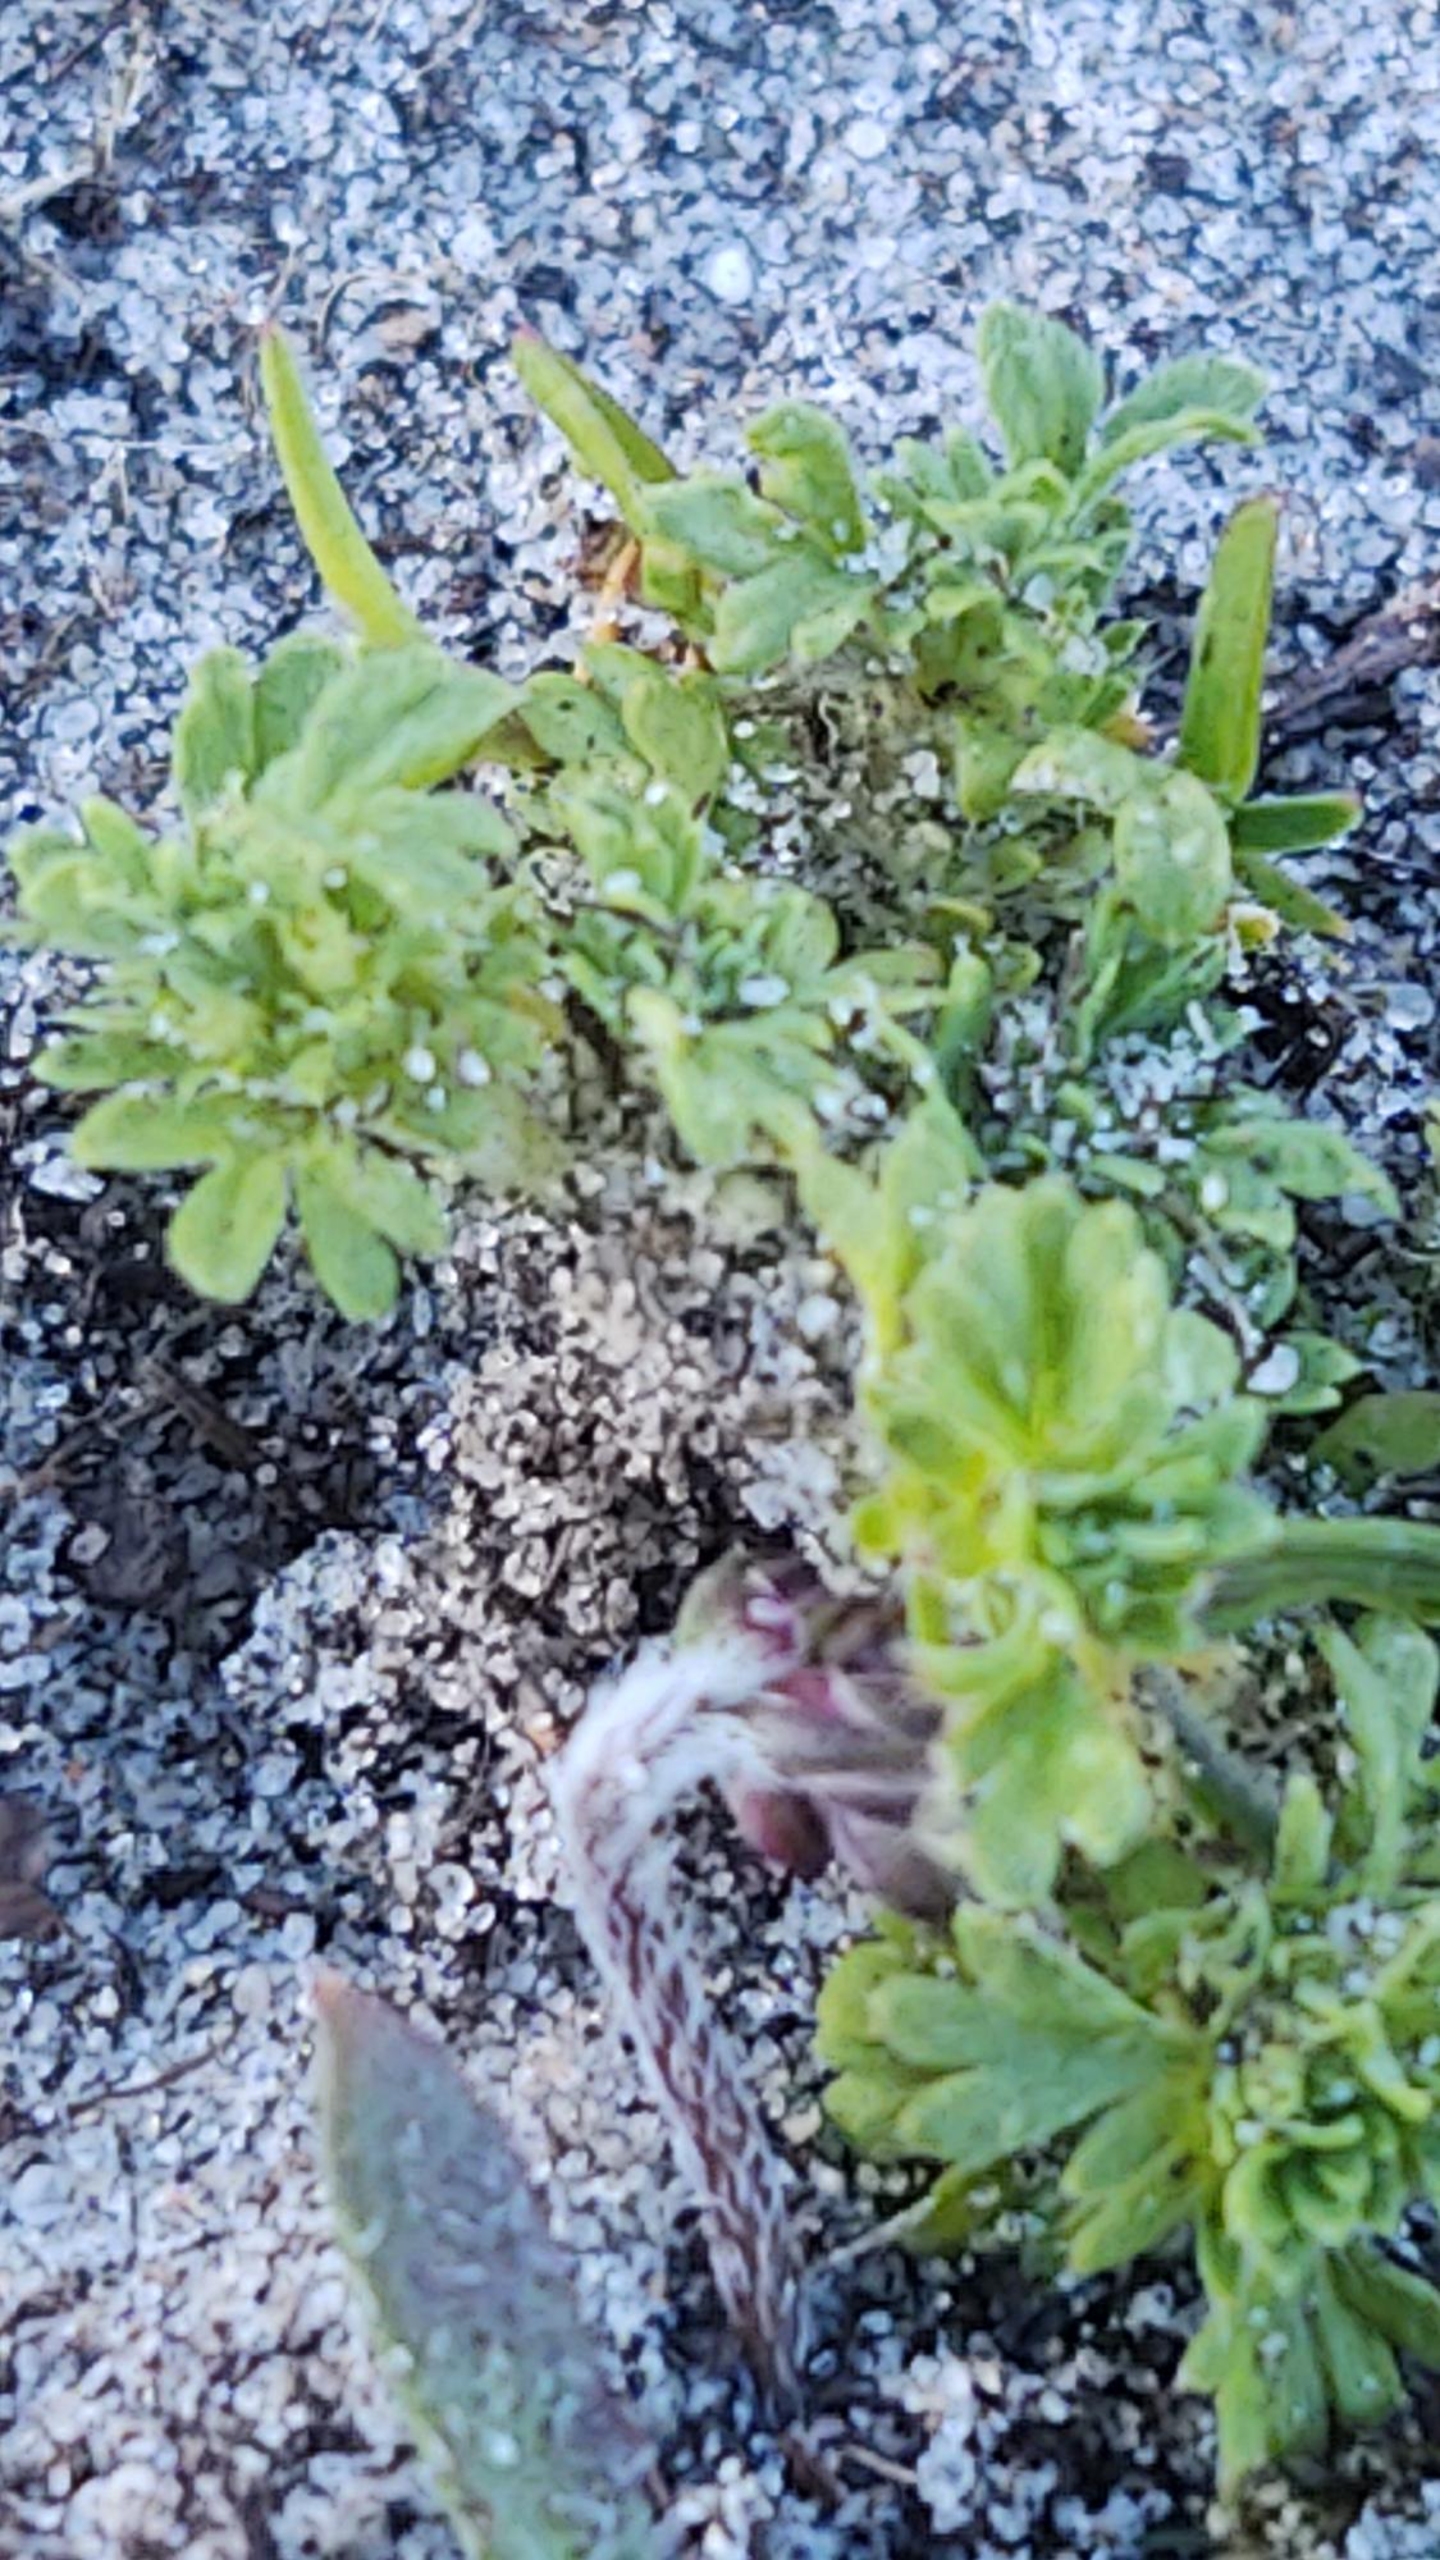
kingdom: Plantae
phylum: Tracheophyta
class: Magnoliopsida
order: Rosales
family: Rosaceae
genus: Aphanes
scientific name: Aphanes australis
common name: Småfrugtet dværgløvefod
